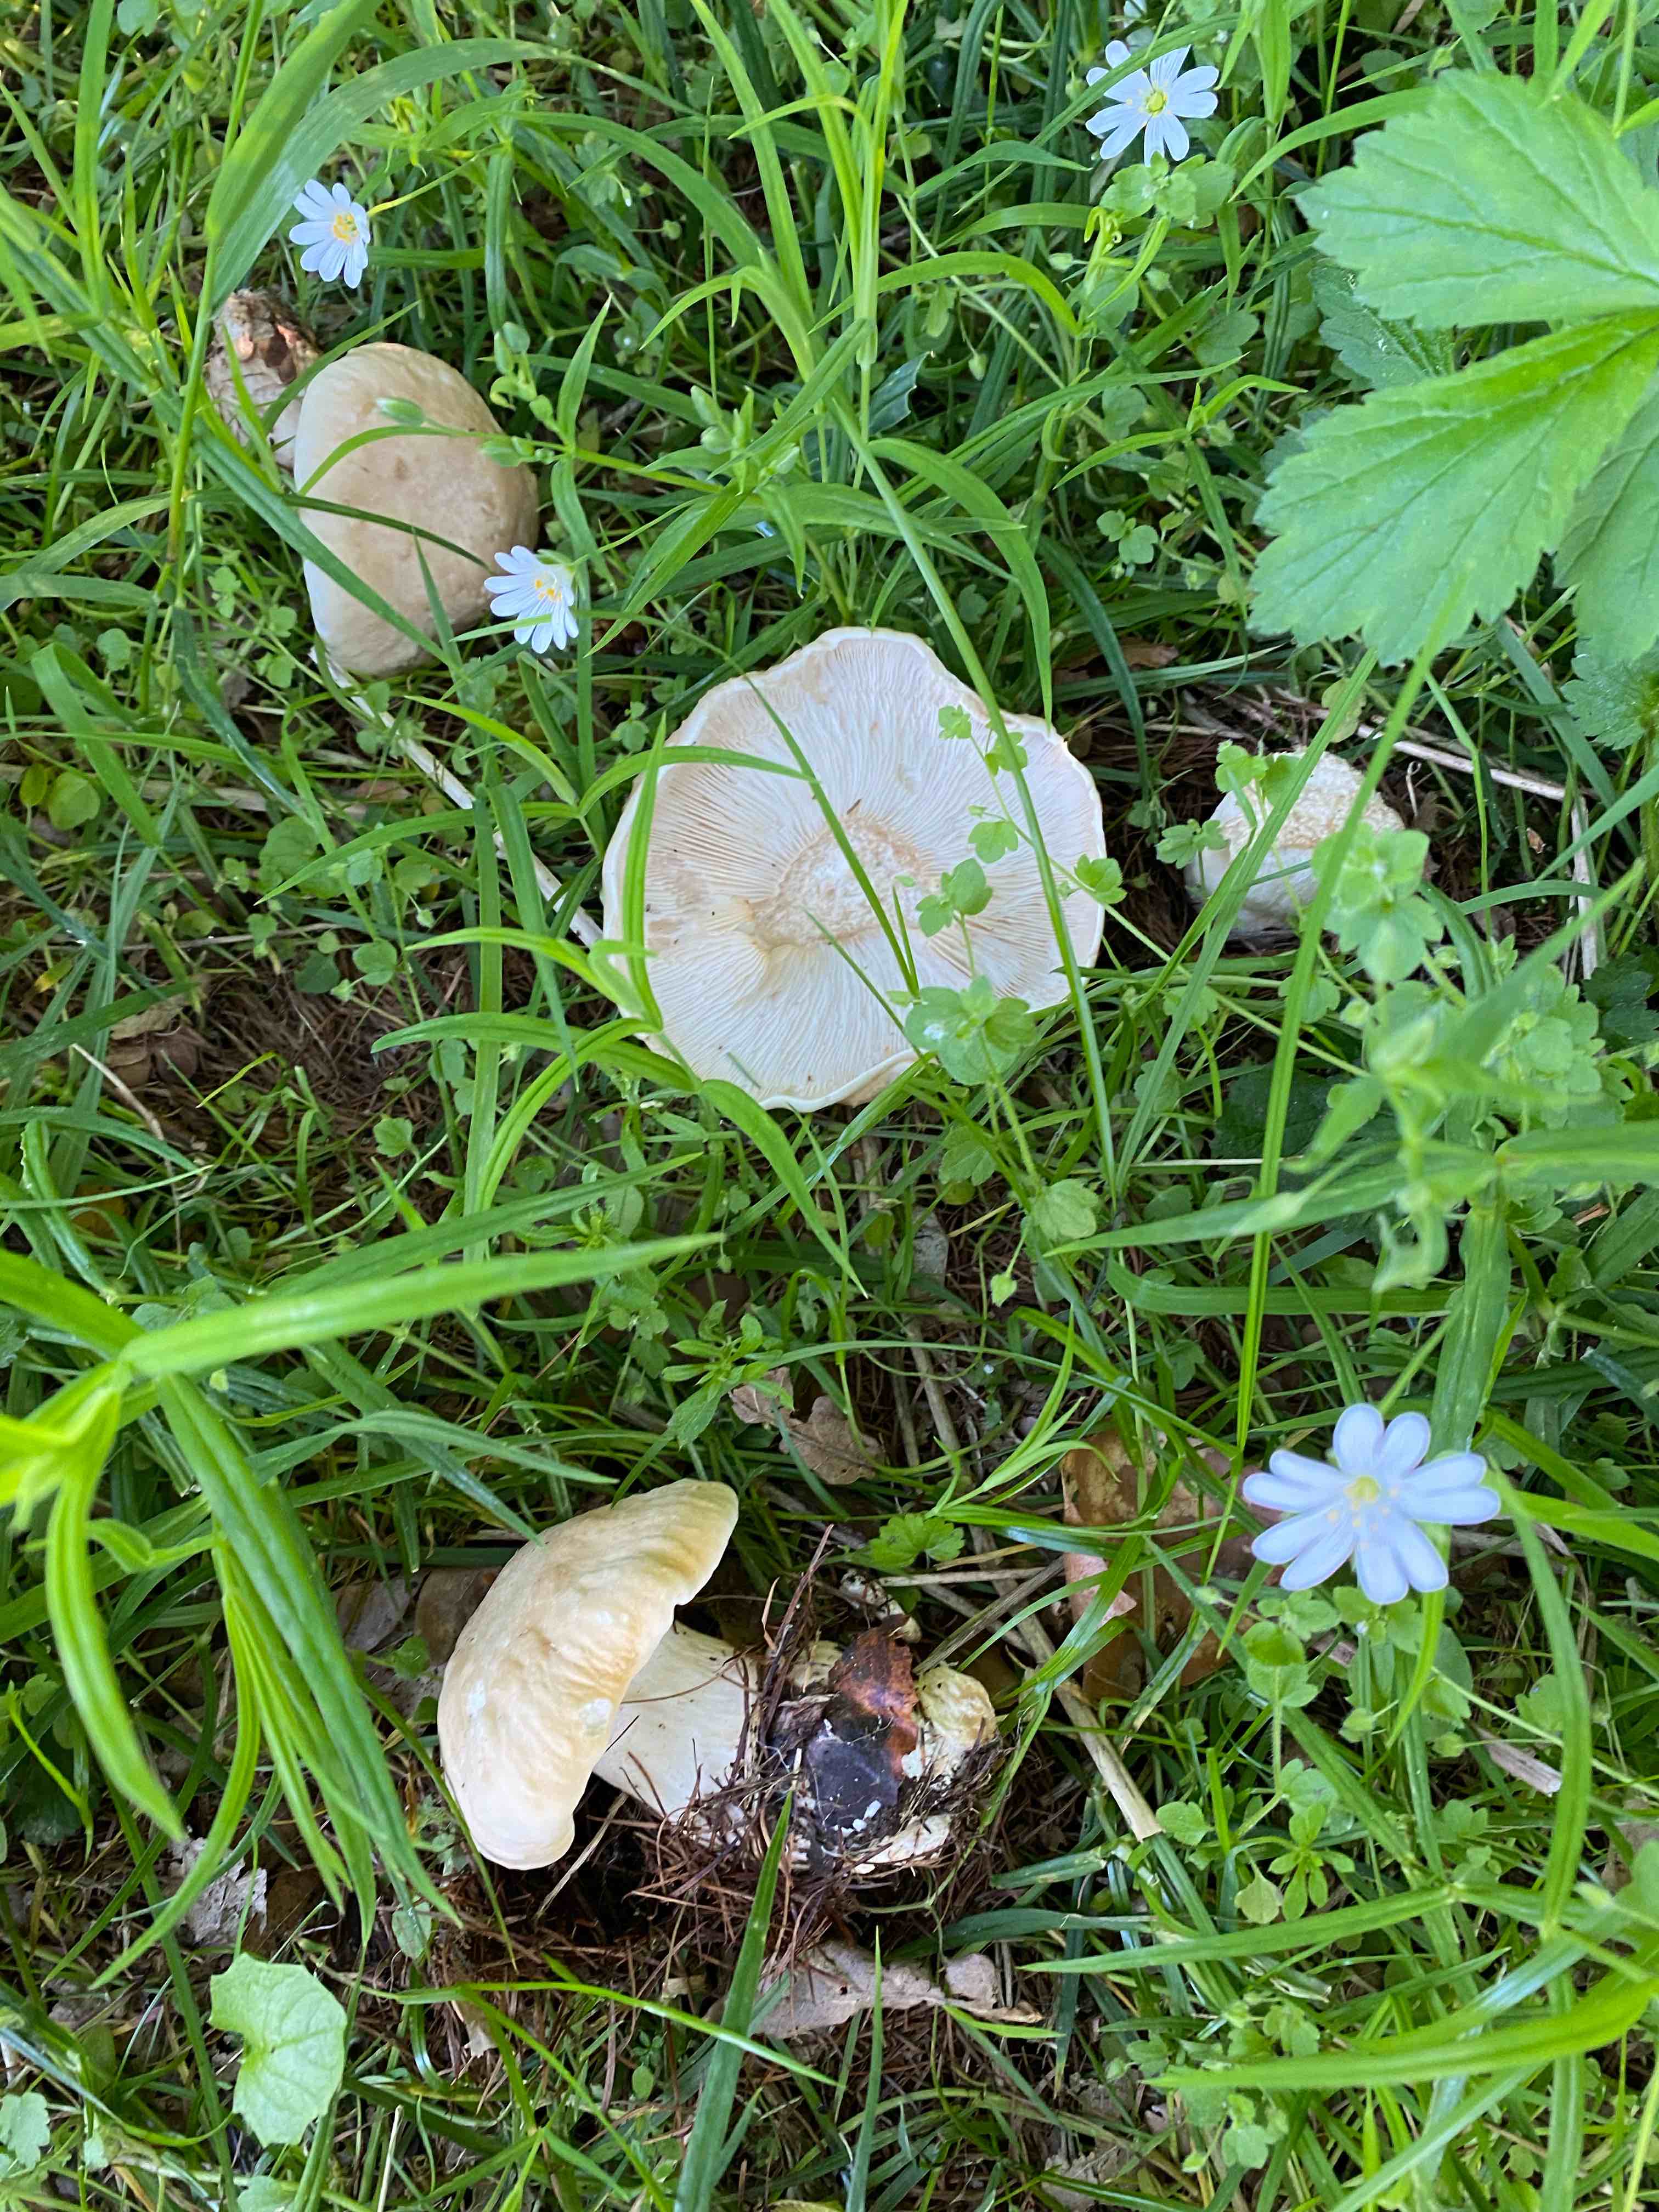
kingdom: Fungi
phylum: Basidiomycota
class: Agaricomycetes
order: Agaricales
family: Lyophyllaceae
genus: Calocybe
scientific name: Calocybe gambosa
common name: vårmusseron
